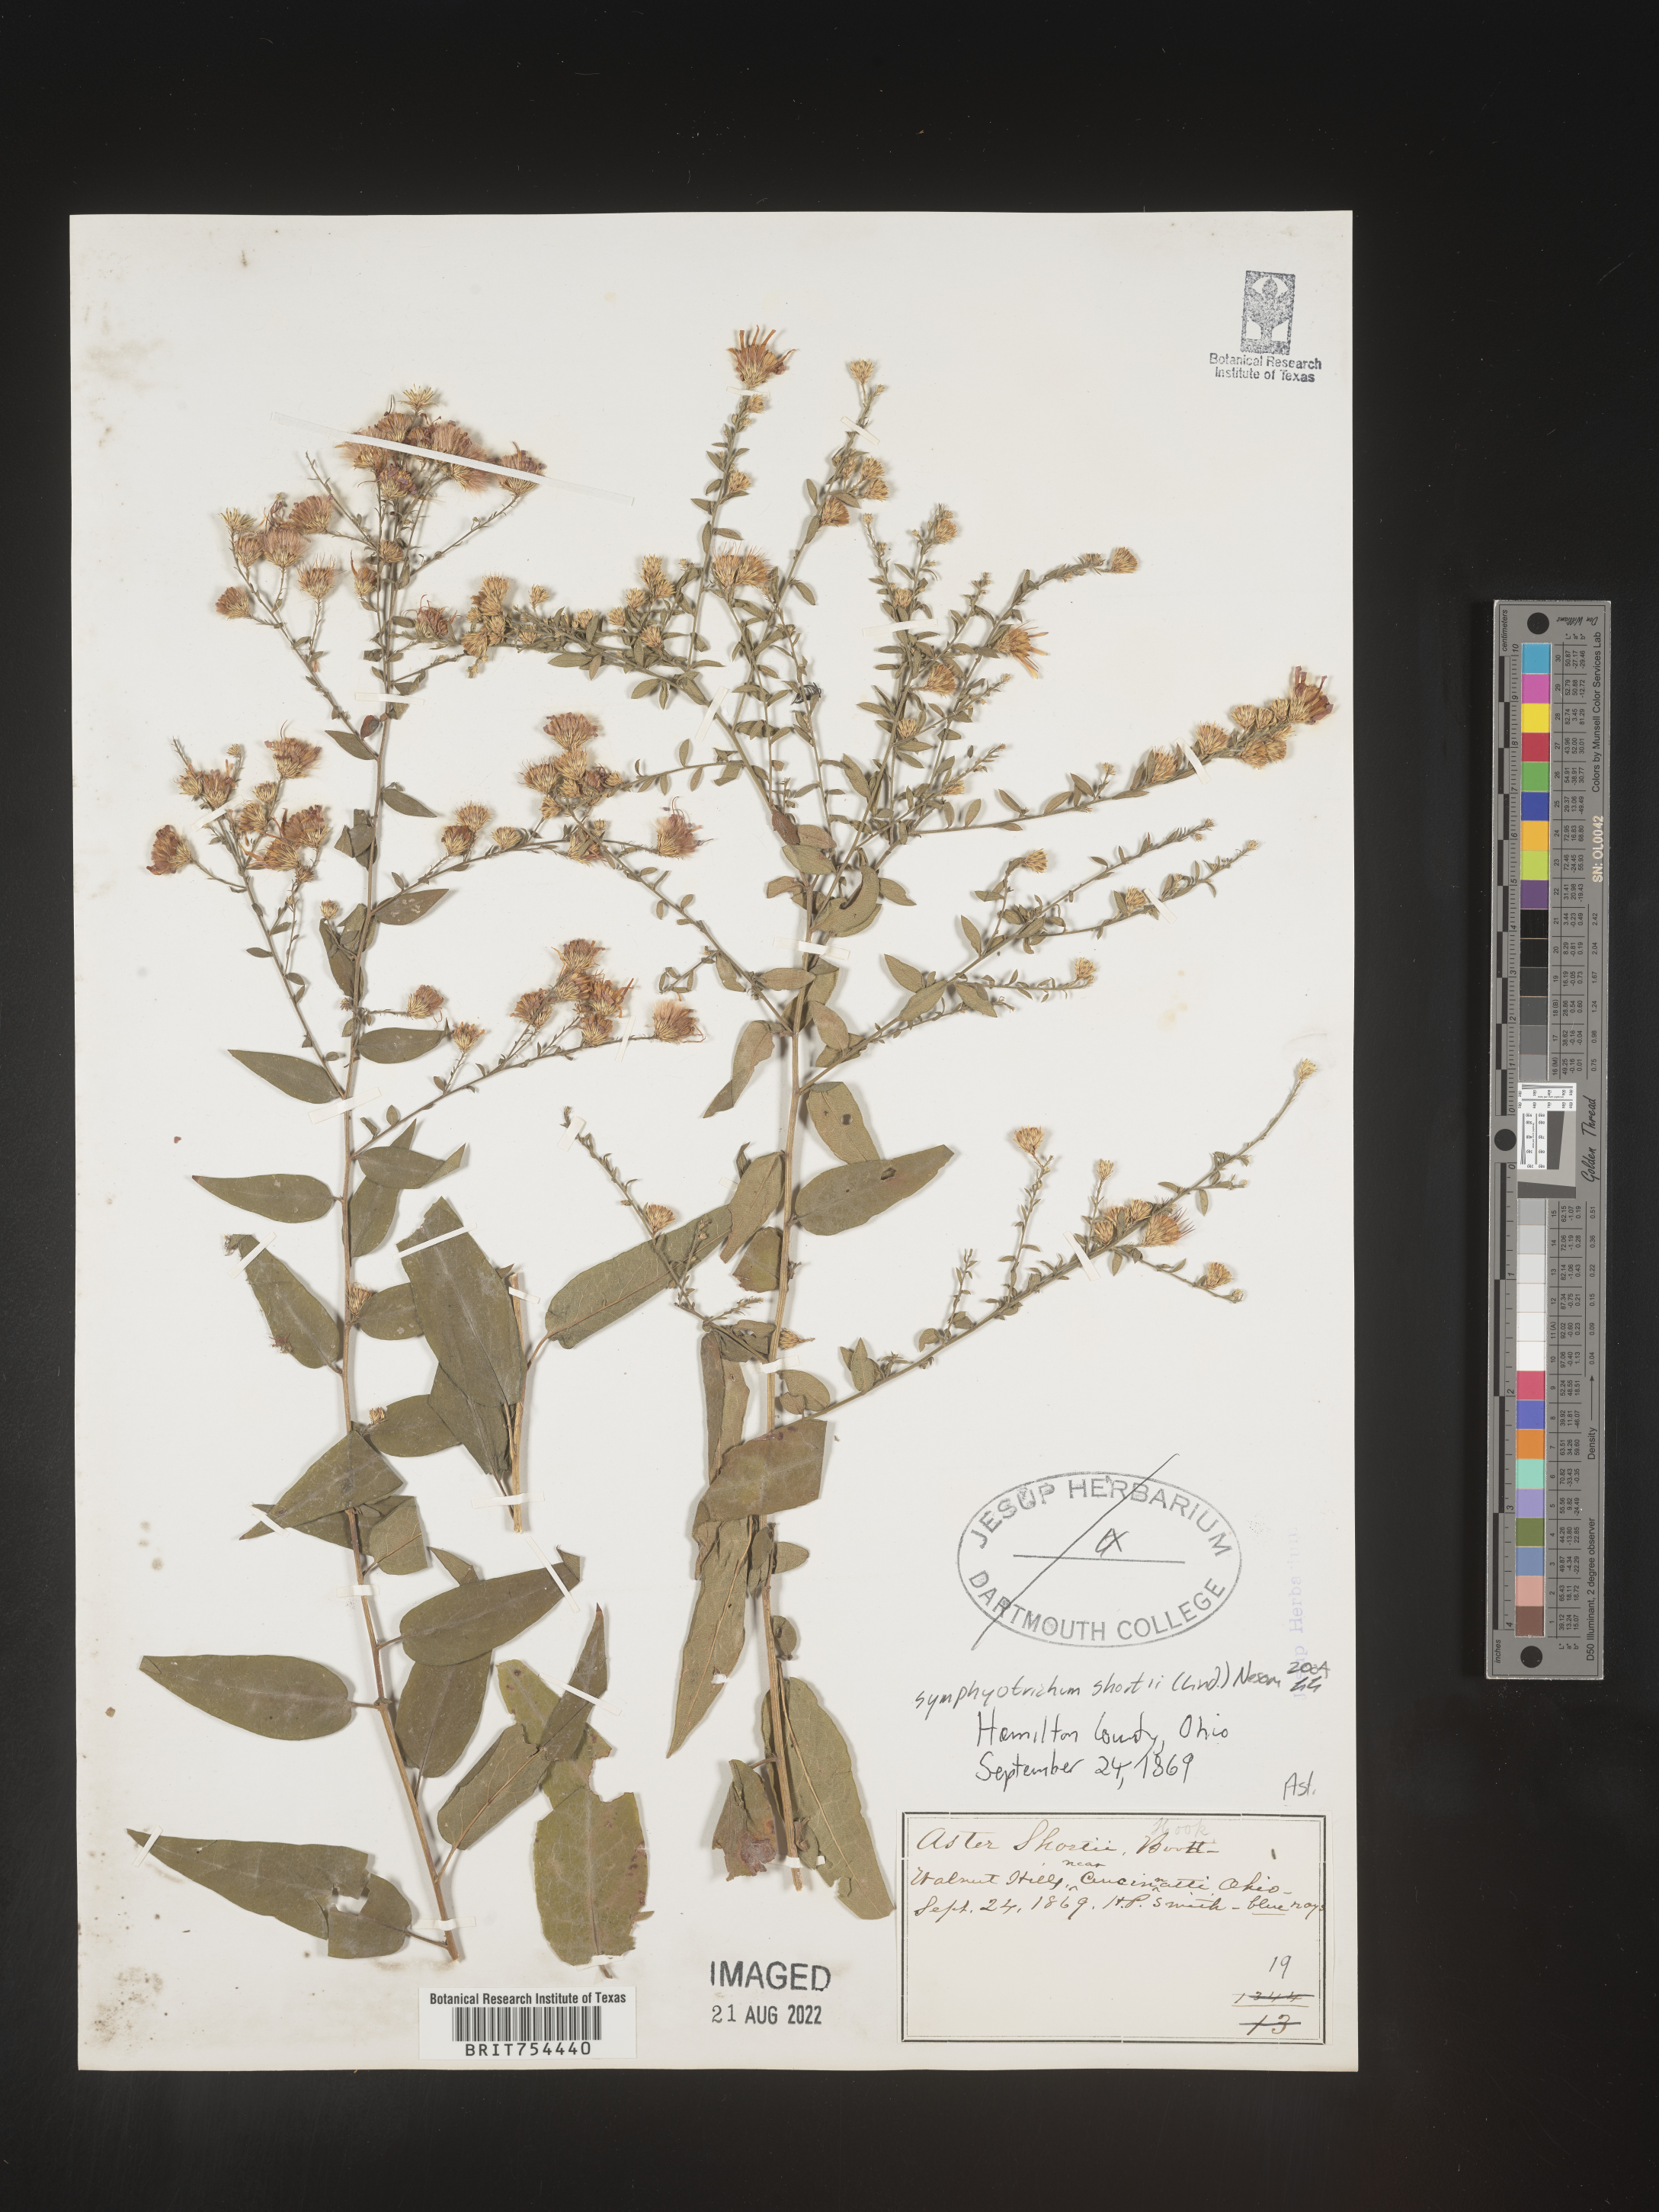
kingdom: Plantae
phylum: Tracheophyta
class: Magnoliopsida
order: Asterales
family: Asteraceae
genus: Symphyotrichum
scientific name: Symphyotrichum shortii
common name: Short's aster
